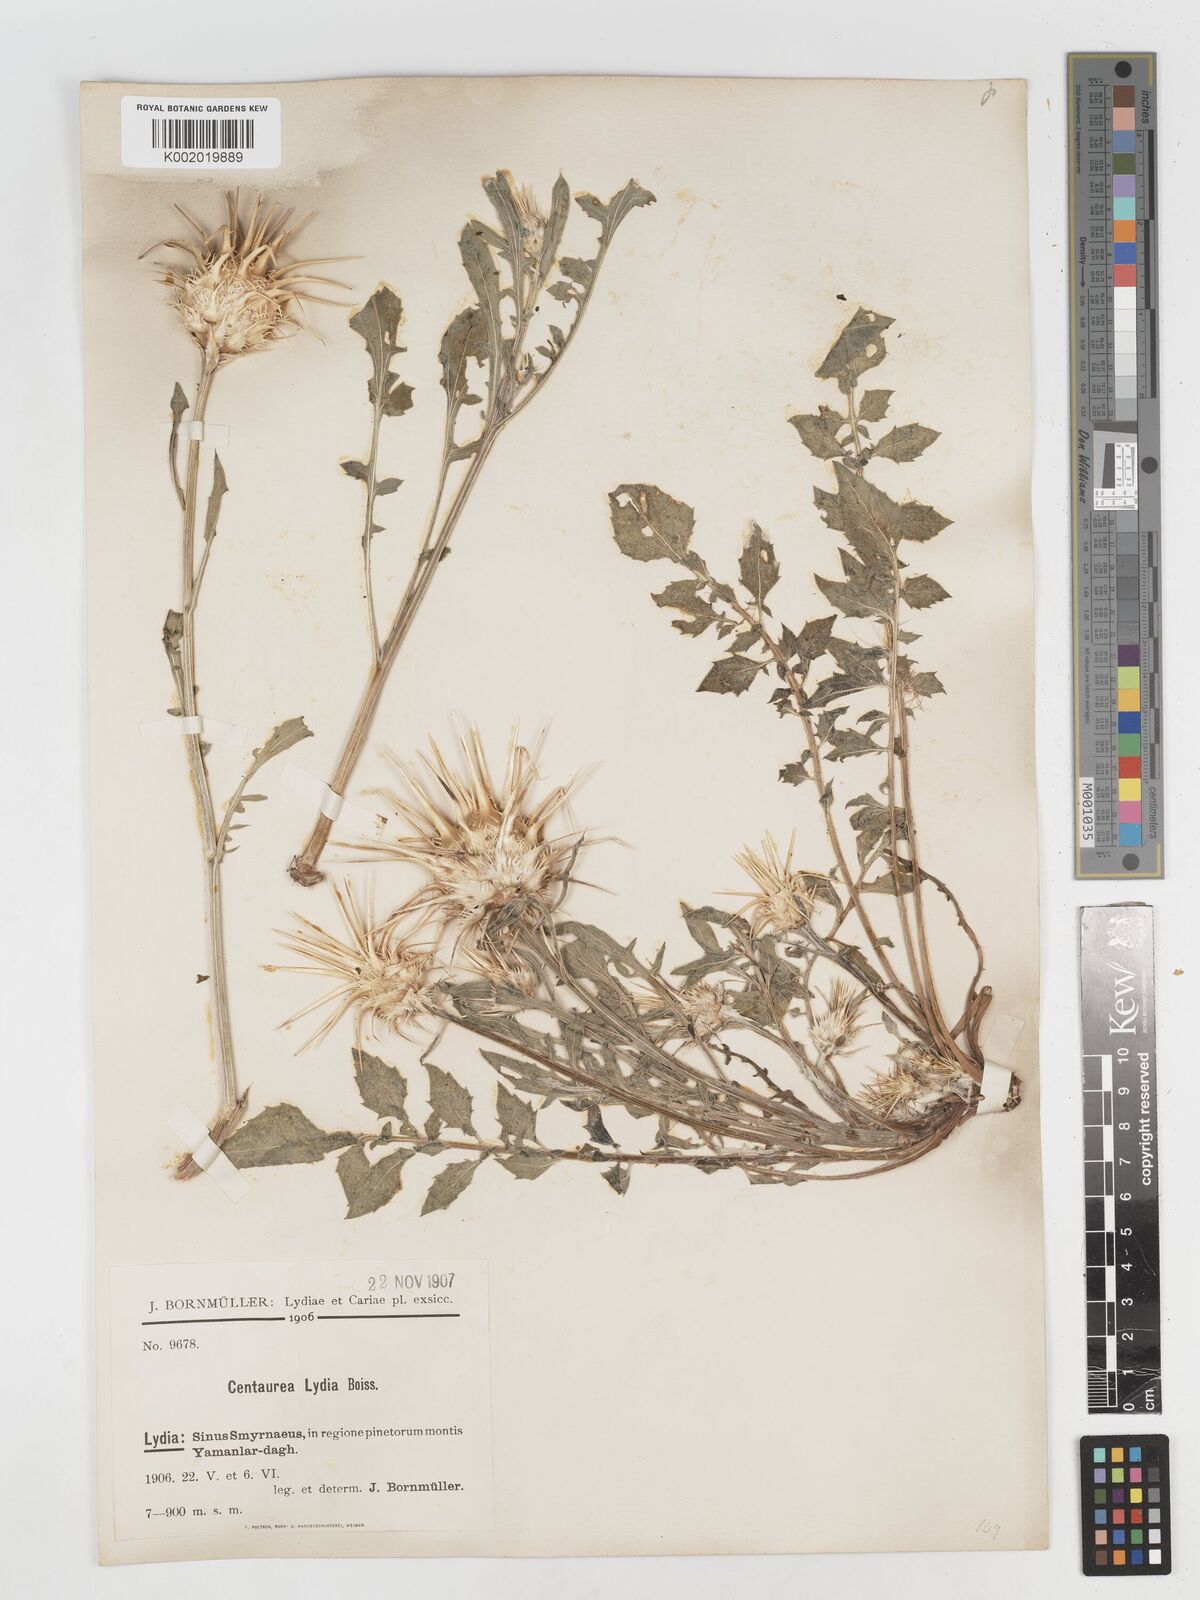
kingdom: Plantae
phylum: Tracheophyta
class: Magnoliopsida
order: Asterales
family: Asteraceae
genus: Centaurea
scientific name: Centaurea lydia
